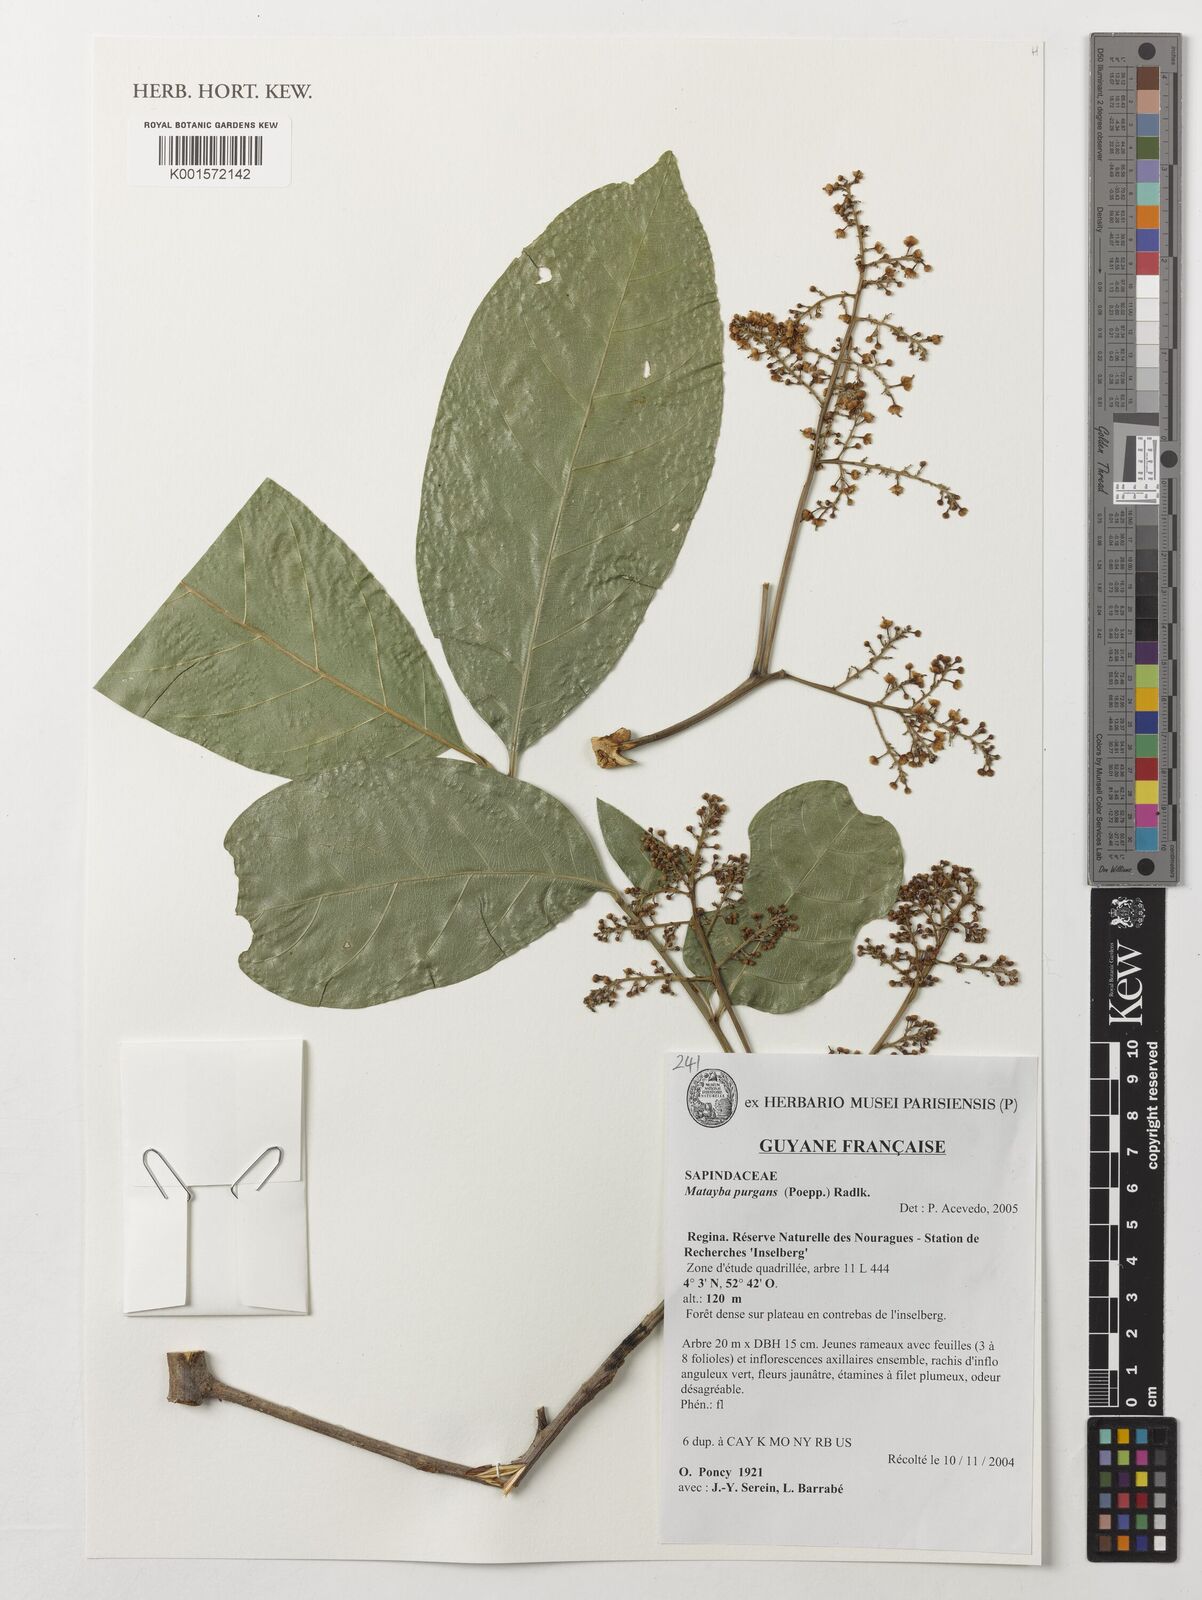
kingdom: Plantae
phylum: Tracheophyta
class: Magnoliopsida
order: Sapindales
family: Sapindaceae
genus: Matayba
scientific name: Matayba purgans
